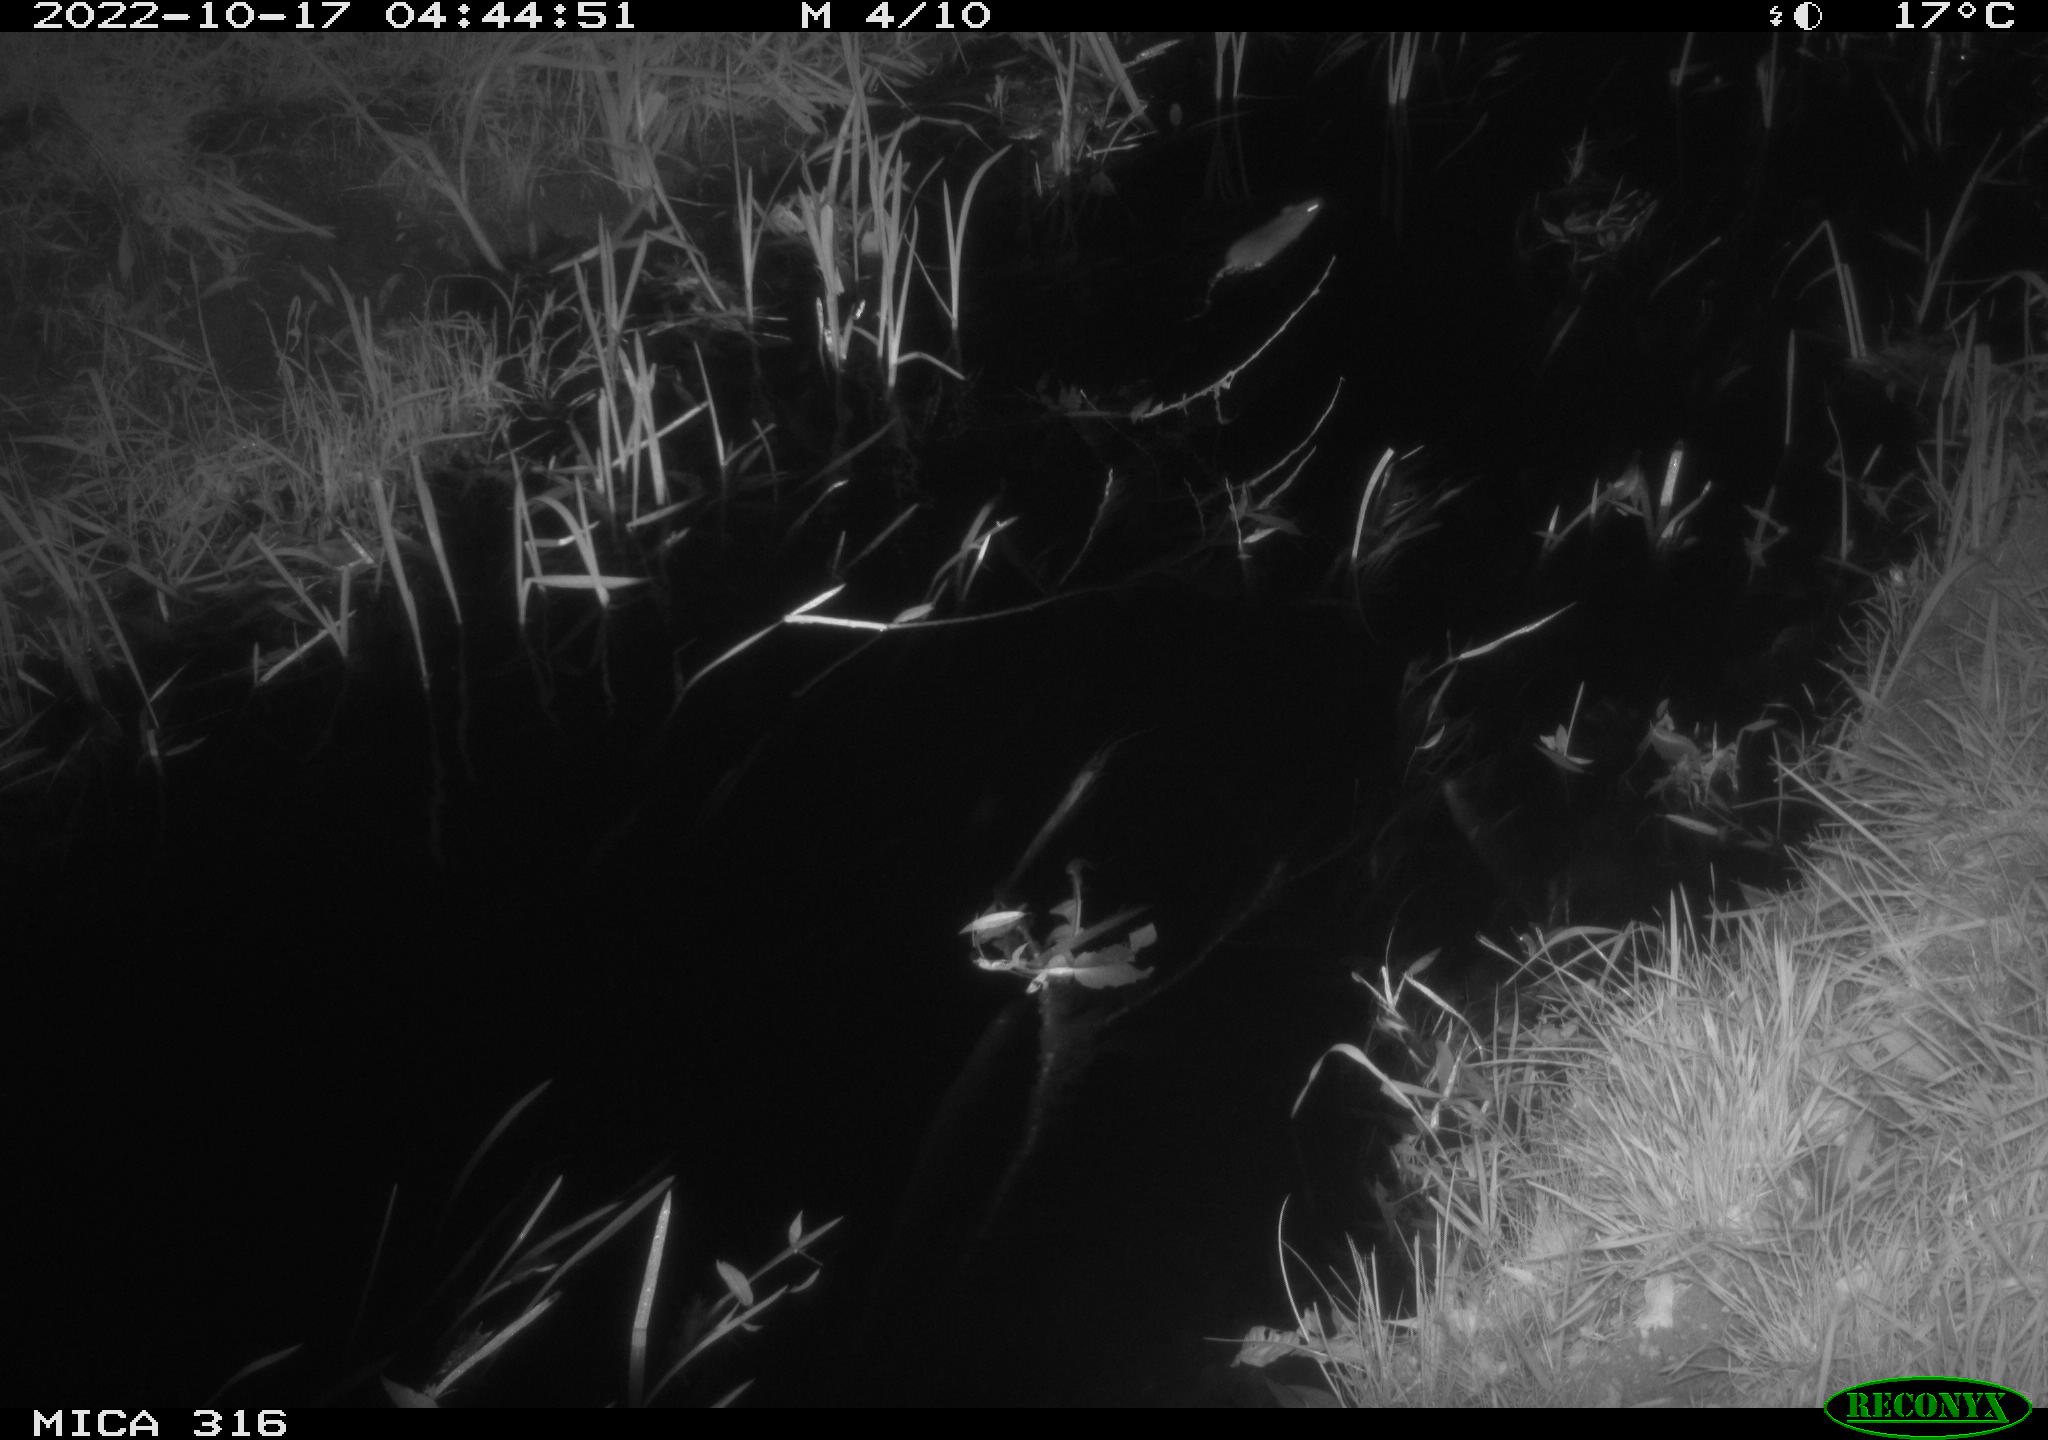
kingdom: Animalia
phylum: Chordata
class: Mammalia
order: Rodentia
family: Muridae
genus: Rattus
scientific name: Rattus norvegicus
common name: Brown rat
